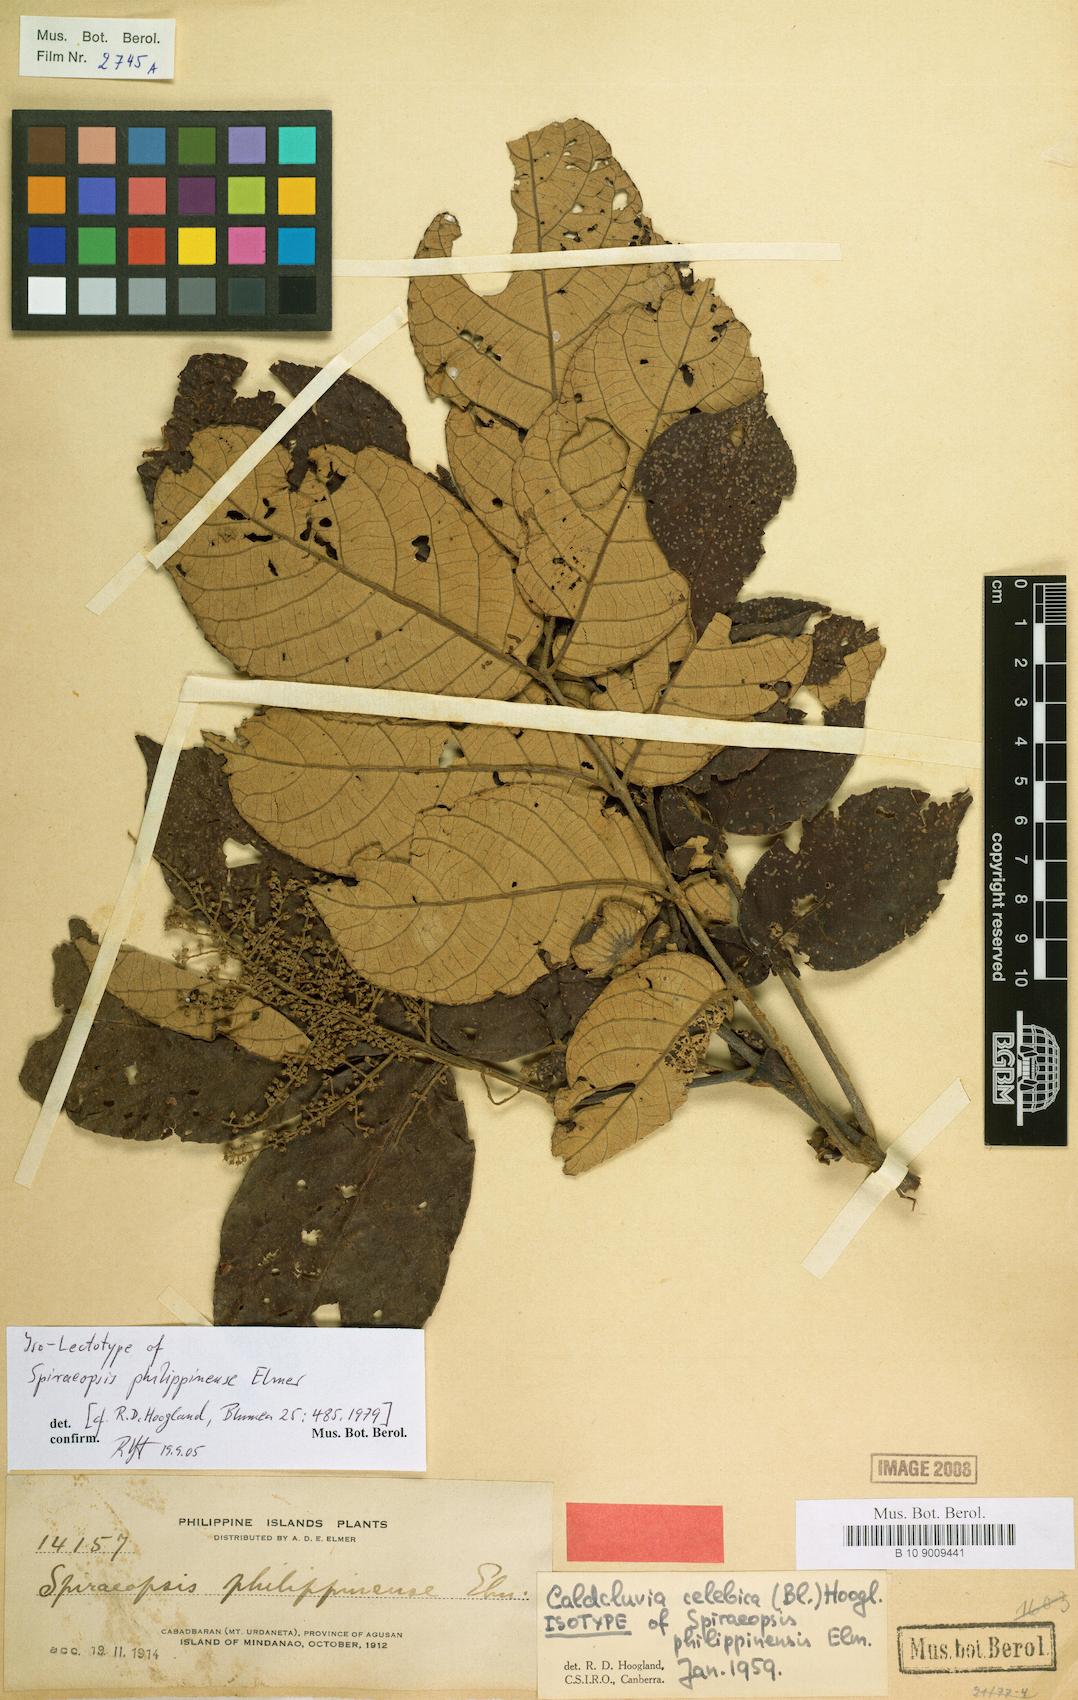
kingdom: Plantae
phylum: Tracheophyta
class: Magnoliopsida
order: Oxalidales
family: Cunoniaceae
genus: Ackama
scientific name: Ackama celebica
